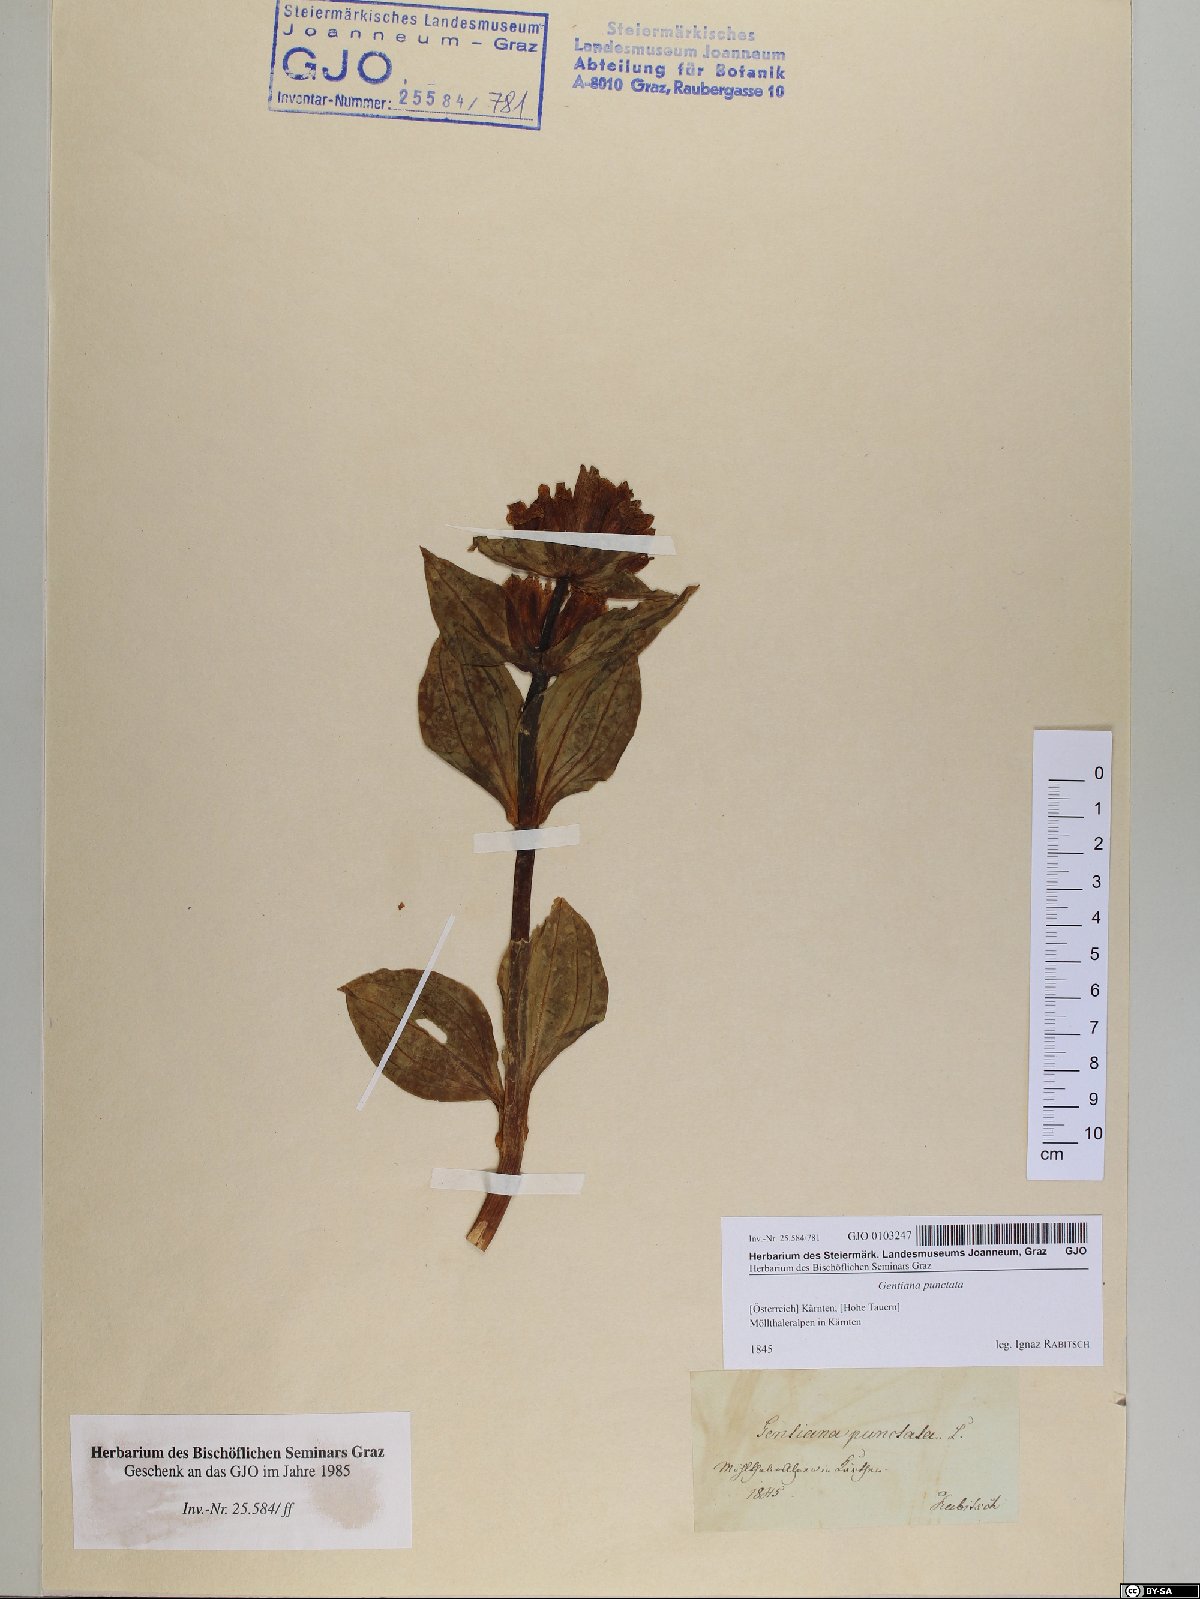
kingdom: Plantae
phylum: Tracheophyta
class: Magnoliopsida
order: Gentianales
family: Gentianaceae
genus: Gentiana
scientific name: Gentiana punctata
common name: Spotted gentian
